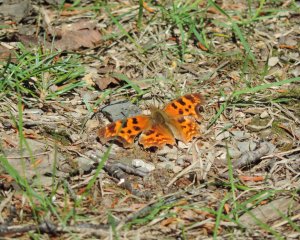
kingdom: Animalia
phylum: Arthropoda
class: Insecta
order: Lepidoptera
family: Nymphalidae
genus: Polygonia
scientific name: Polygonia satyrus
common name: Satyr Comma
